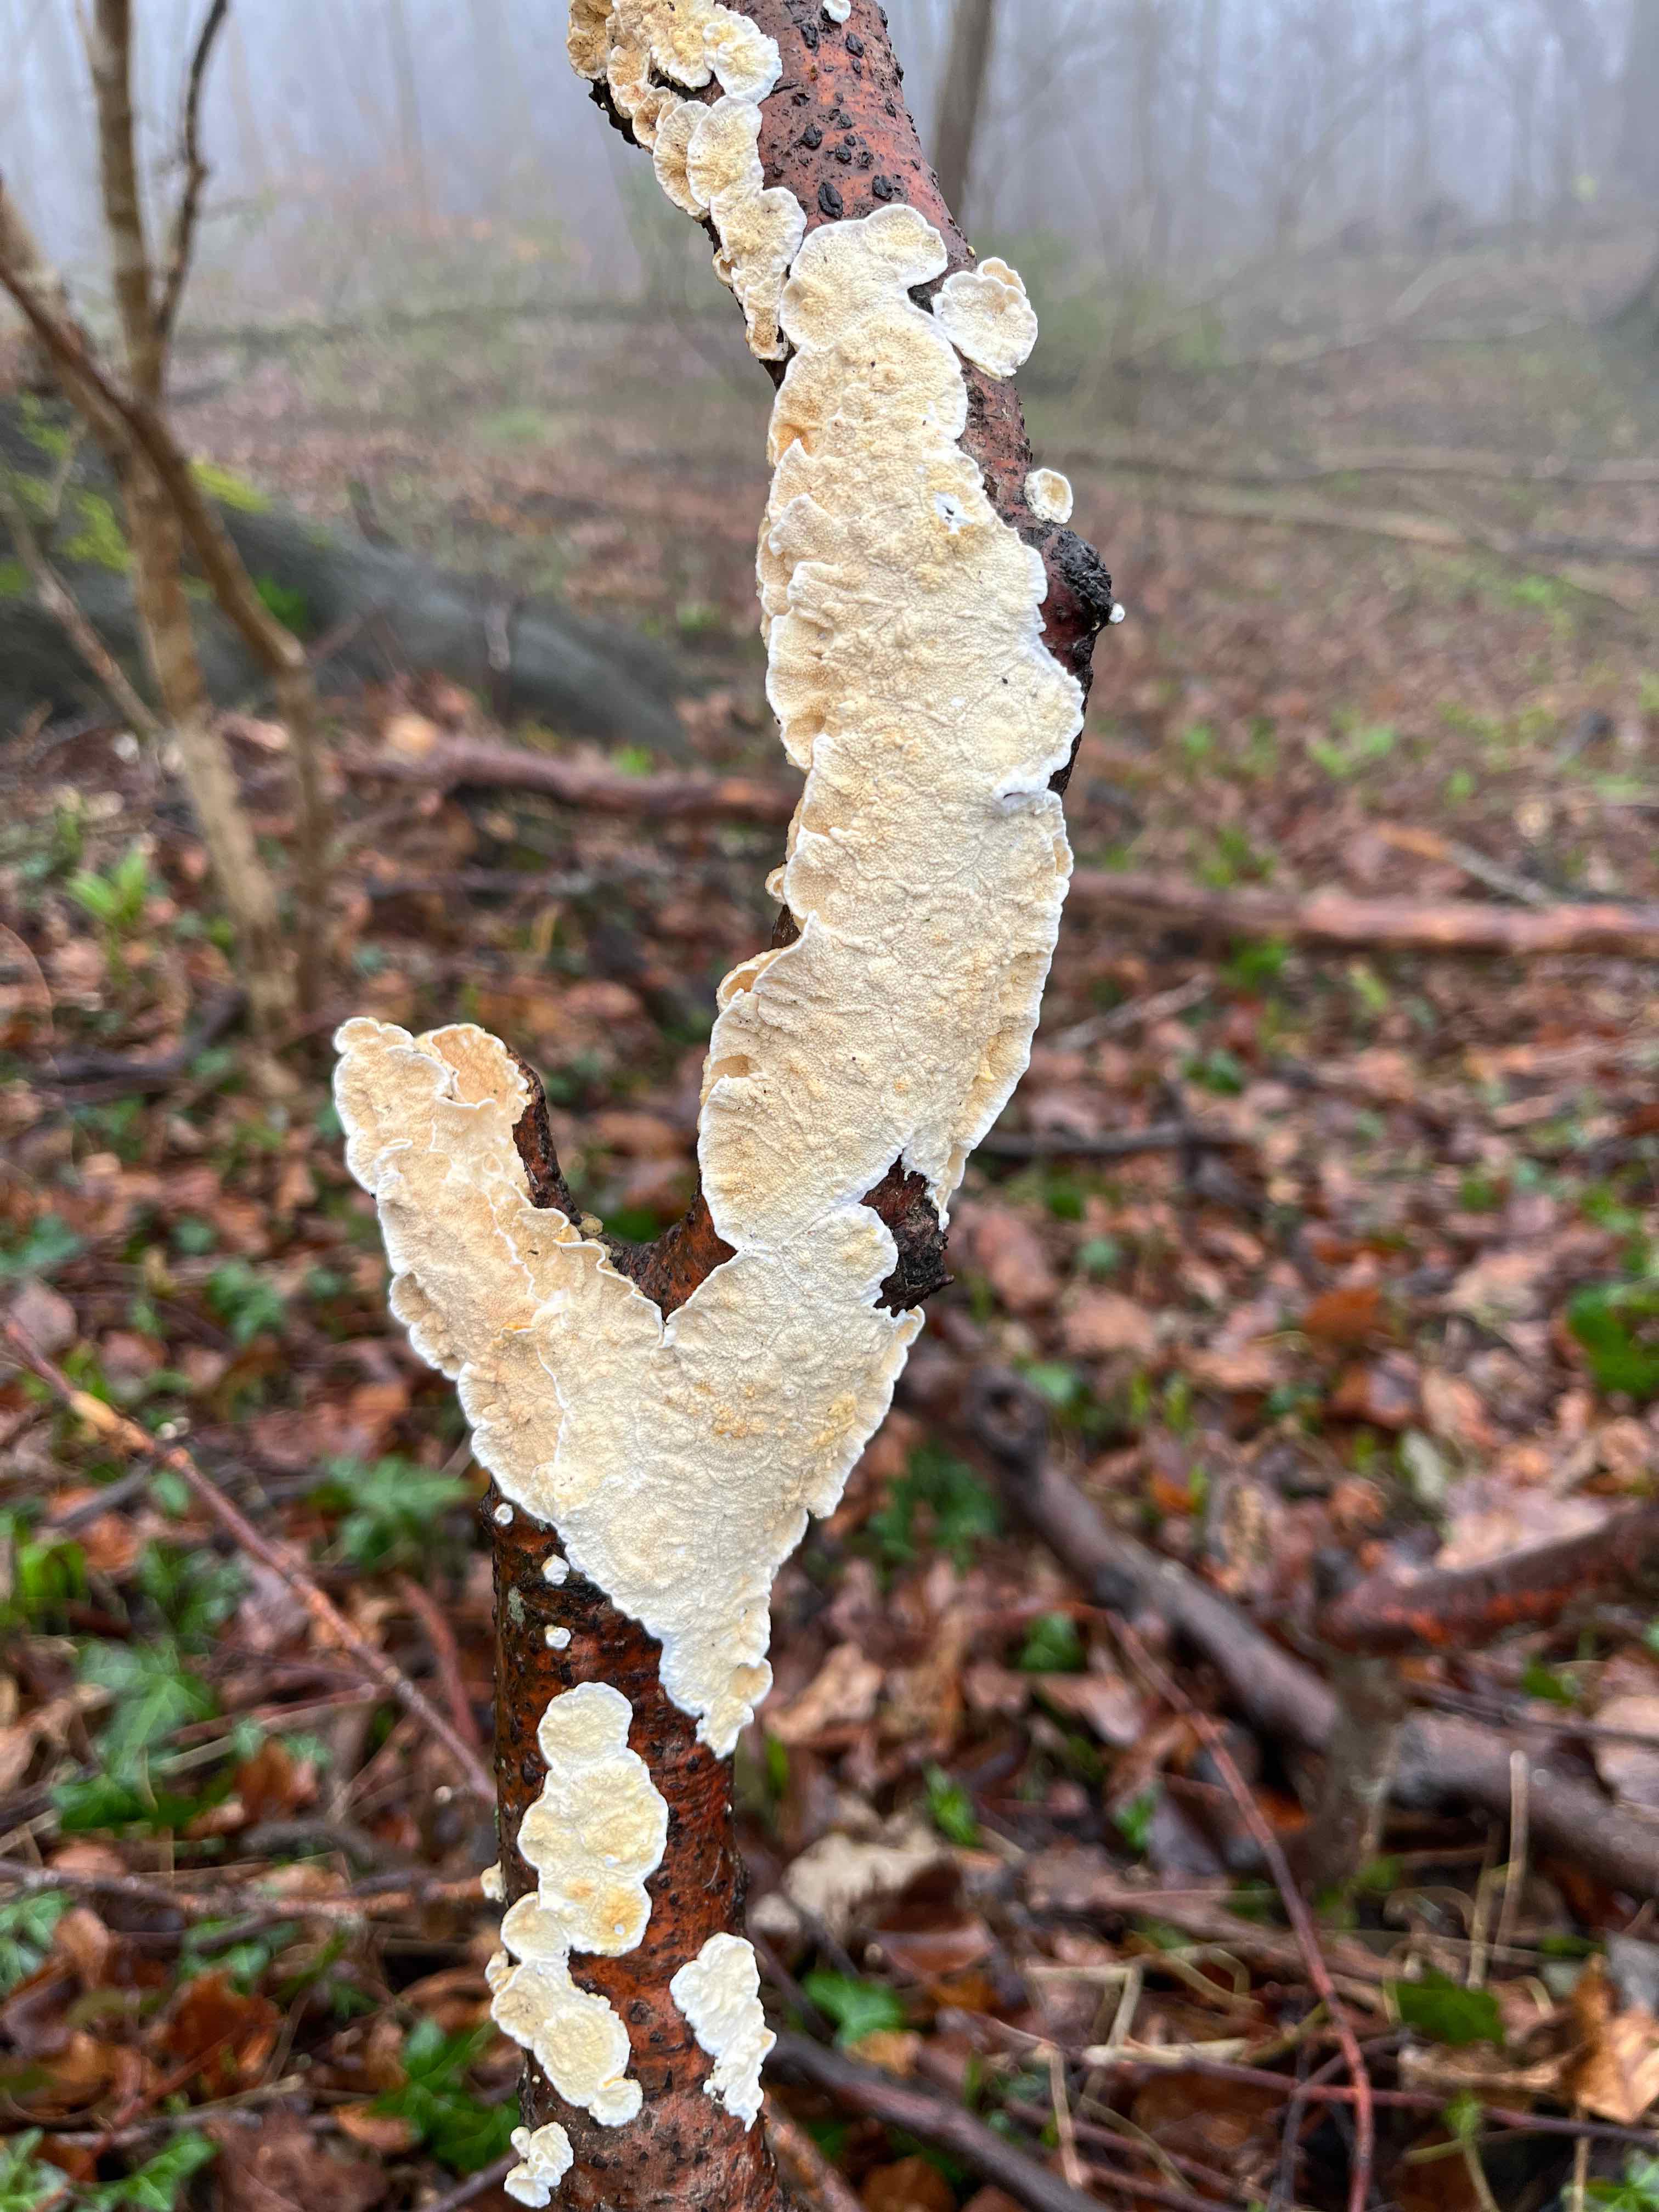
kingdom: Fungi
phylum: Basidiomycota
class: Agaricomycetes
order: Polyporales
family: Irpicaceae
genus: Byssomerulius
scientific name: Byssomerulius corium
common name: læder-åresvamp
